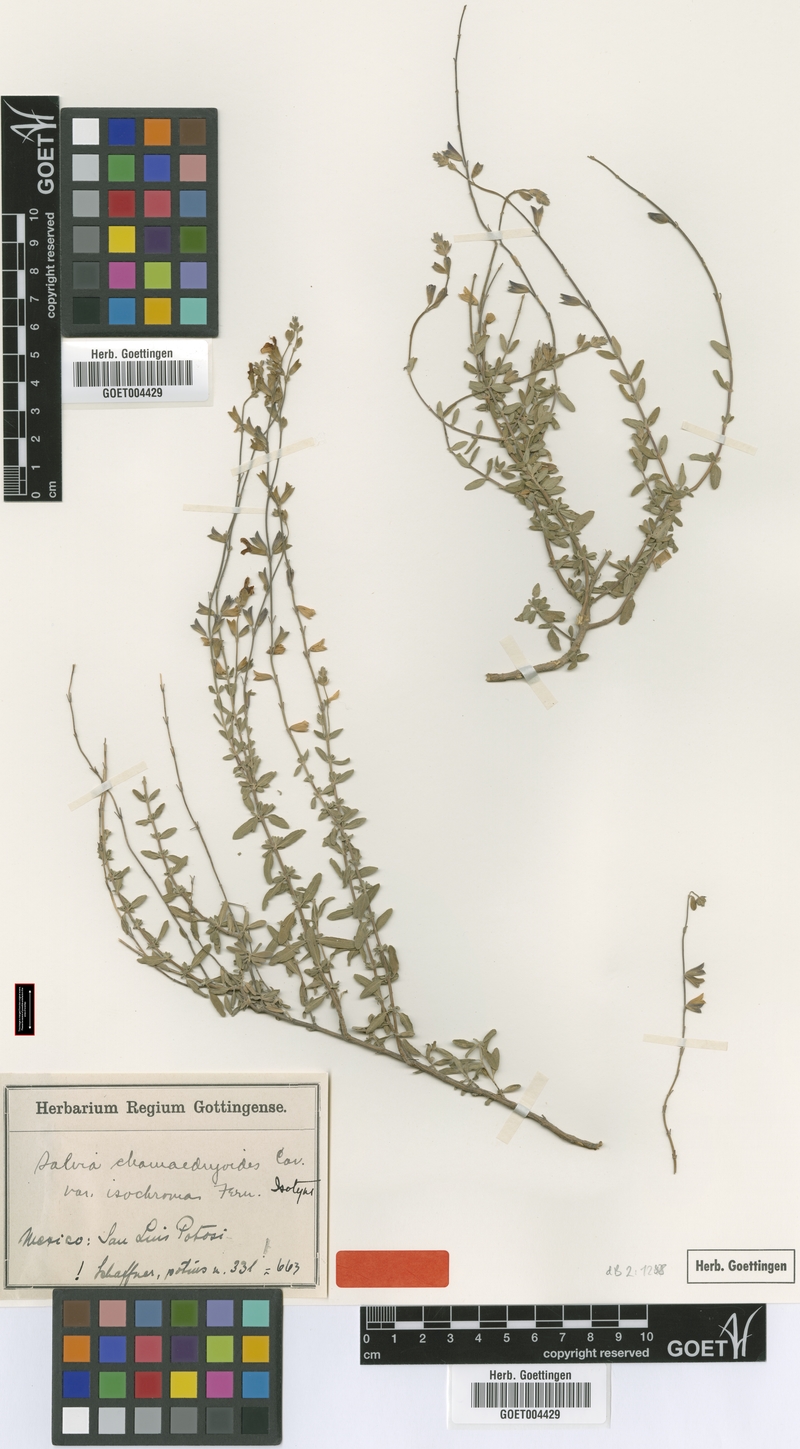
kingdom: Plantae
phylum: Tracheophyta
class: Magnoliopsida
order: Lamiales
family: Lamiaceae
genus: Salvia
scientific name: Salvia chamaedryoides
